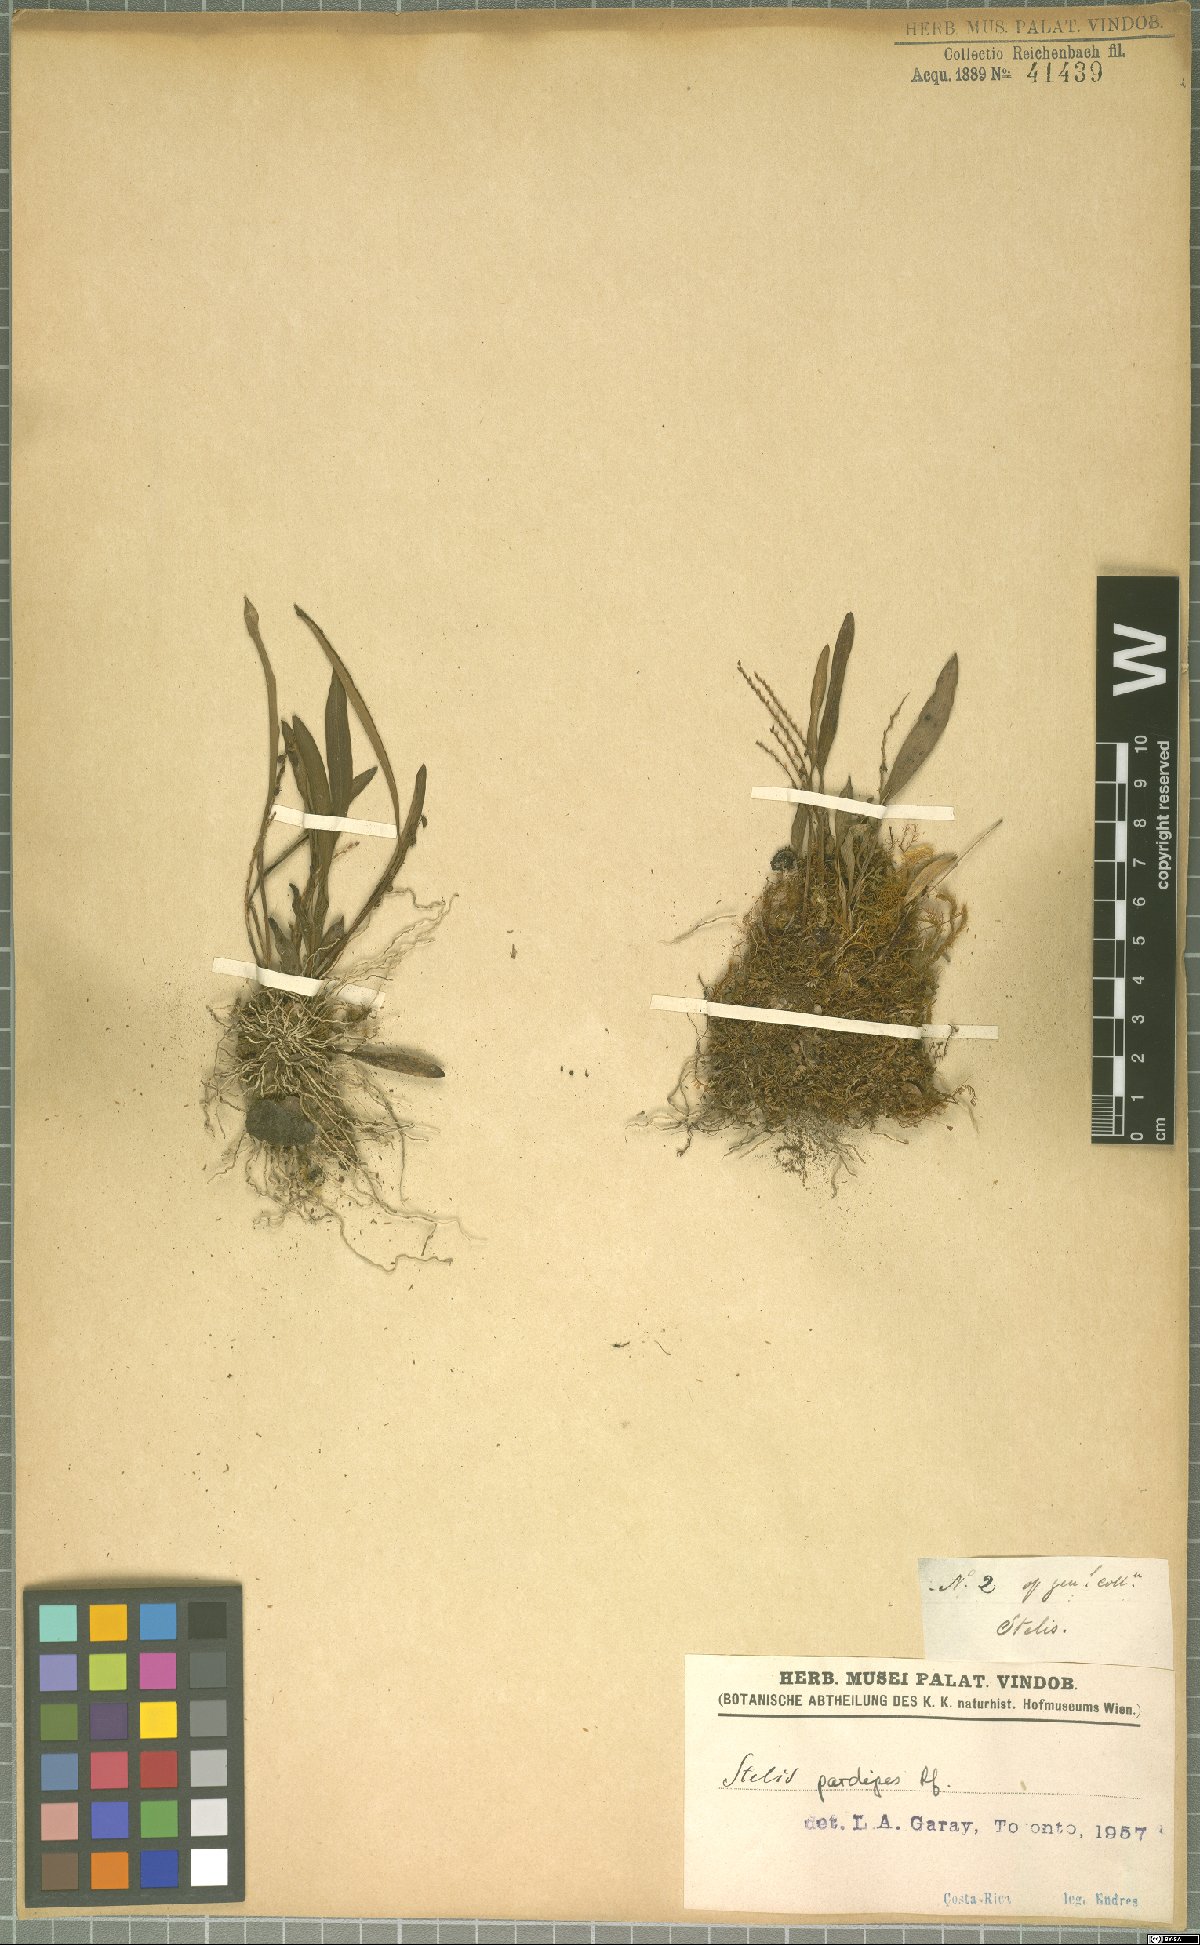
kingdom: Plantae
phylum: Tracheophyta
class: Liliopsida
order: Asparagales
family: Orchidaceae
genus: Stelis
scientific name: Stelis pardipes
